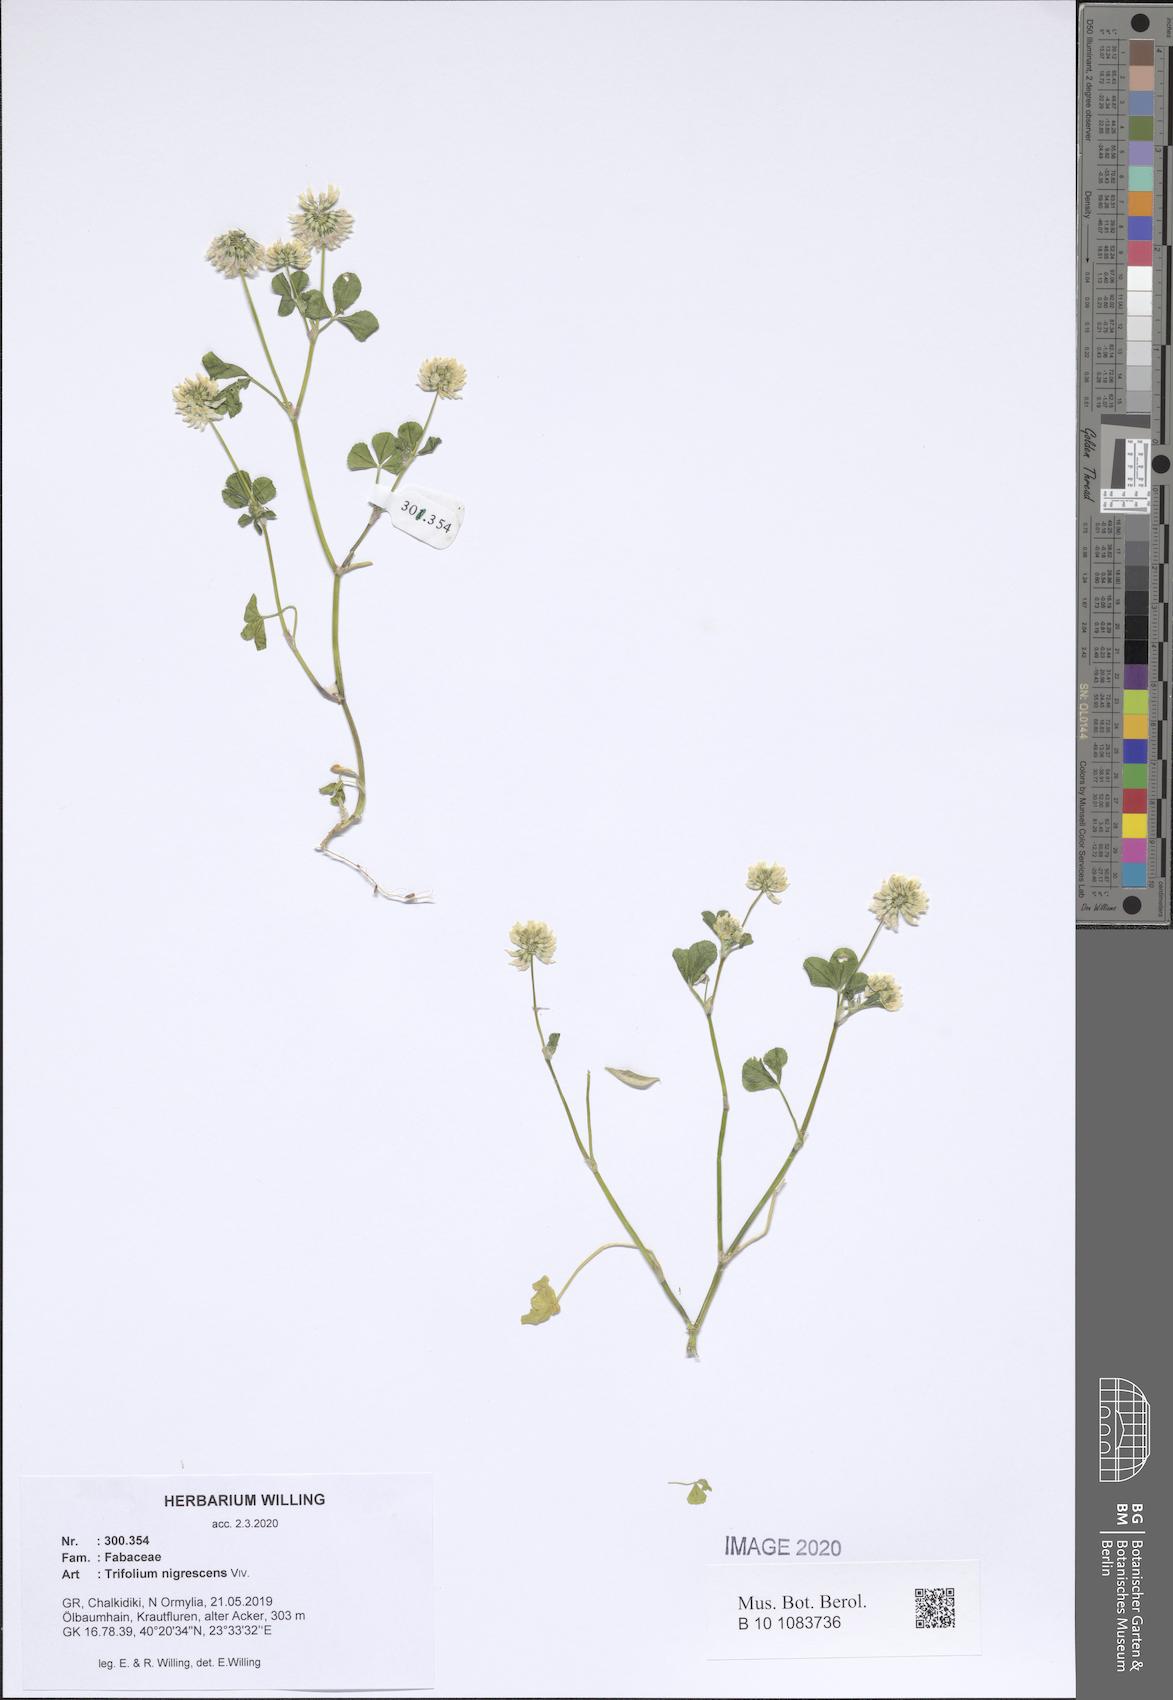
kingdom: Plantae
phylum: Tracheophyta
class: Magnoliopsida
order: Fabales
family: Fabaceae
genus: Trifolium
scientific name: Trifolium nigrescens
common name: Small white clover
